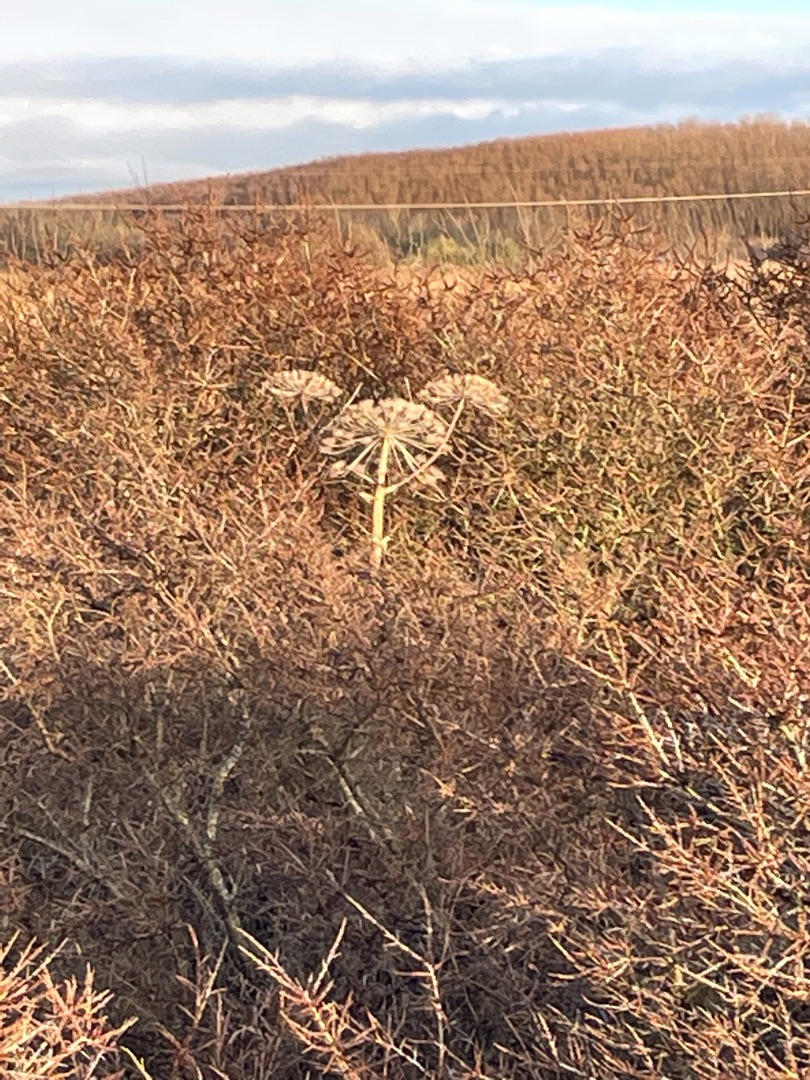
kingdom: Plantae
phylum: Tracheophyta
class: Magnoliopsida
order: Apiales
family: Apiaceae
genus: Heracleum
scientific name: Heracleum mantegazzianum
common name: Kæmpe-bjørneklo
